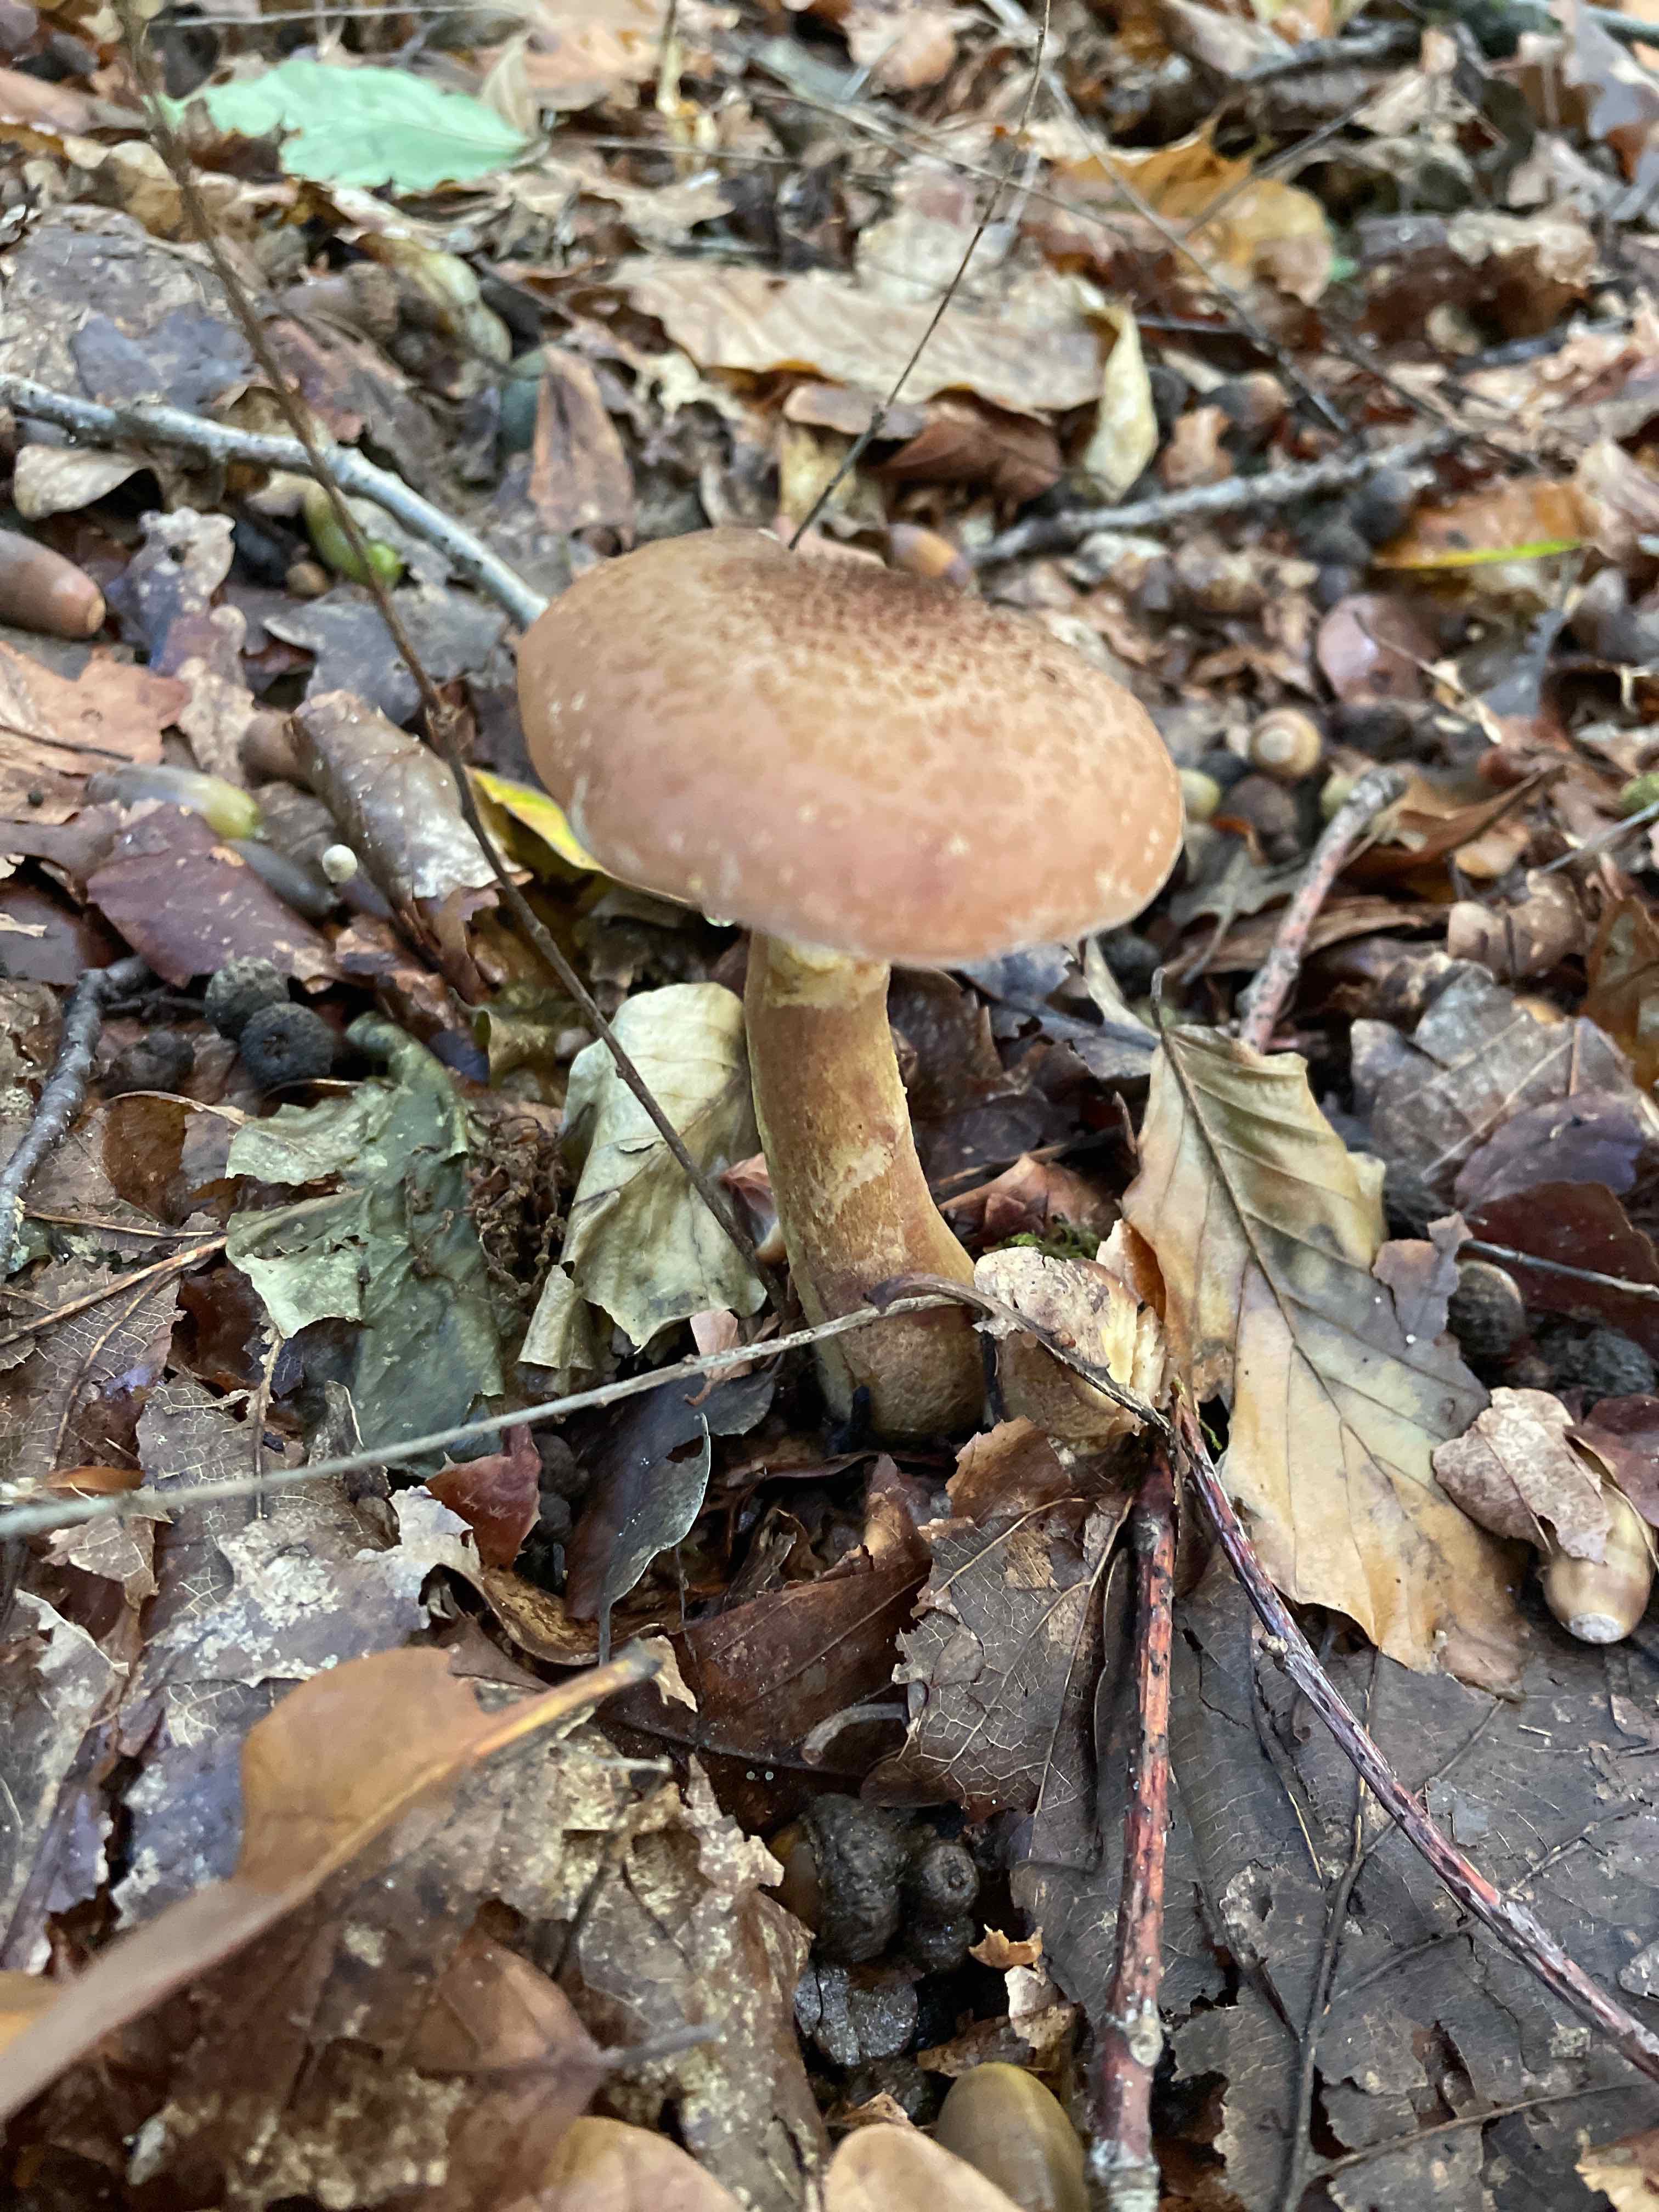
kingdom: Fungi
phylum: Basidiomycota
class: Agaricomycetes
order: Agaricales
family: Physalacriaceae
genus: Armillaria
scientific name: Armillaria
